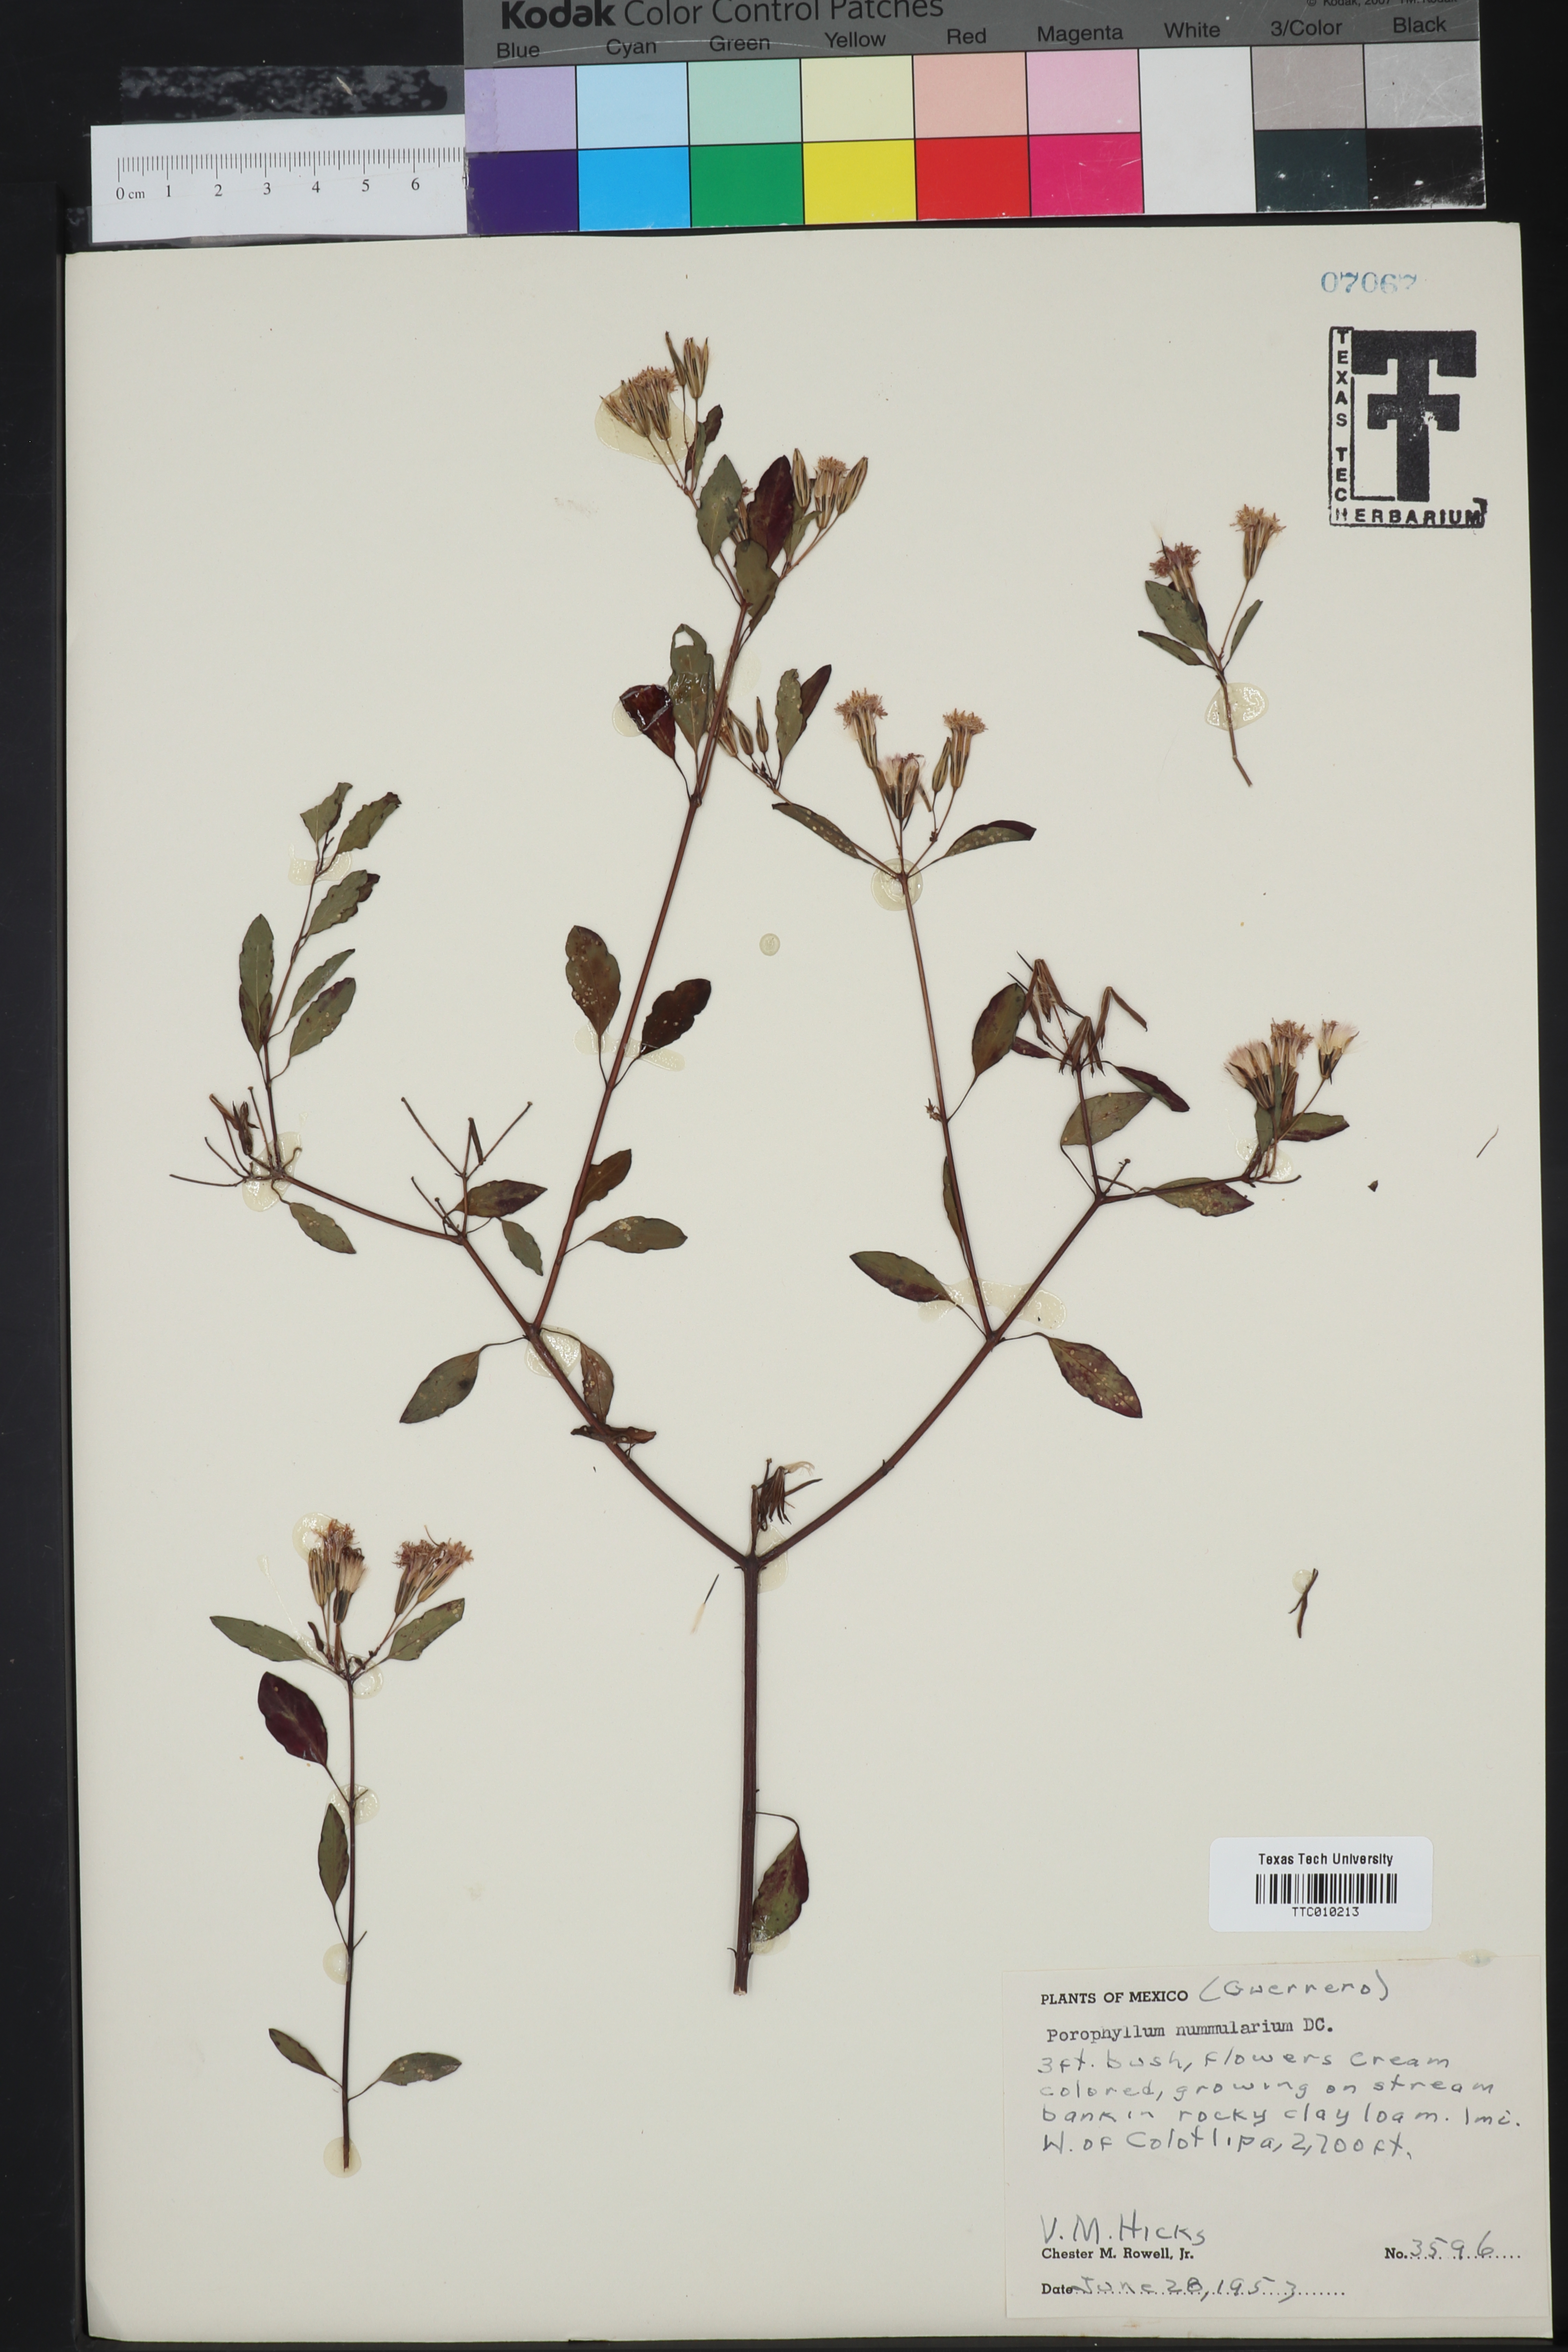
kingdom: Plantae
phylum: Tracheophyta
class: Magnoliopsida
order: Asterales
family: Asteraceae
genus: Porophyllum
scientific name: Porophyllum punctatum
